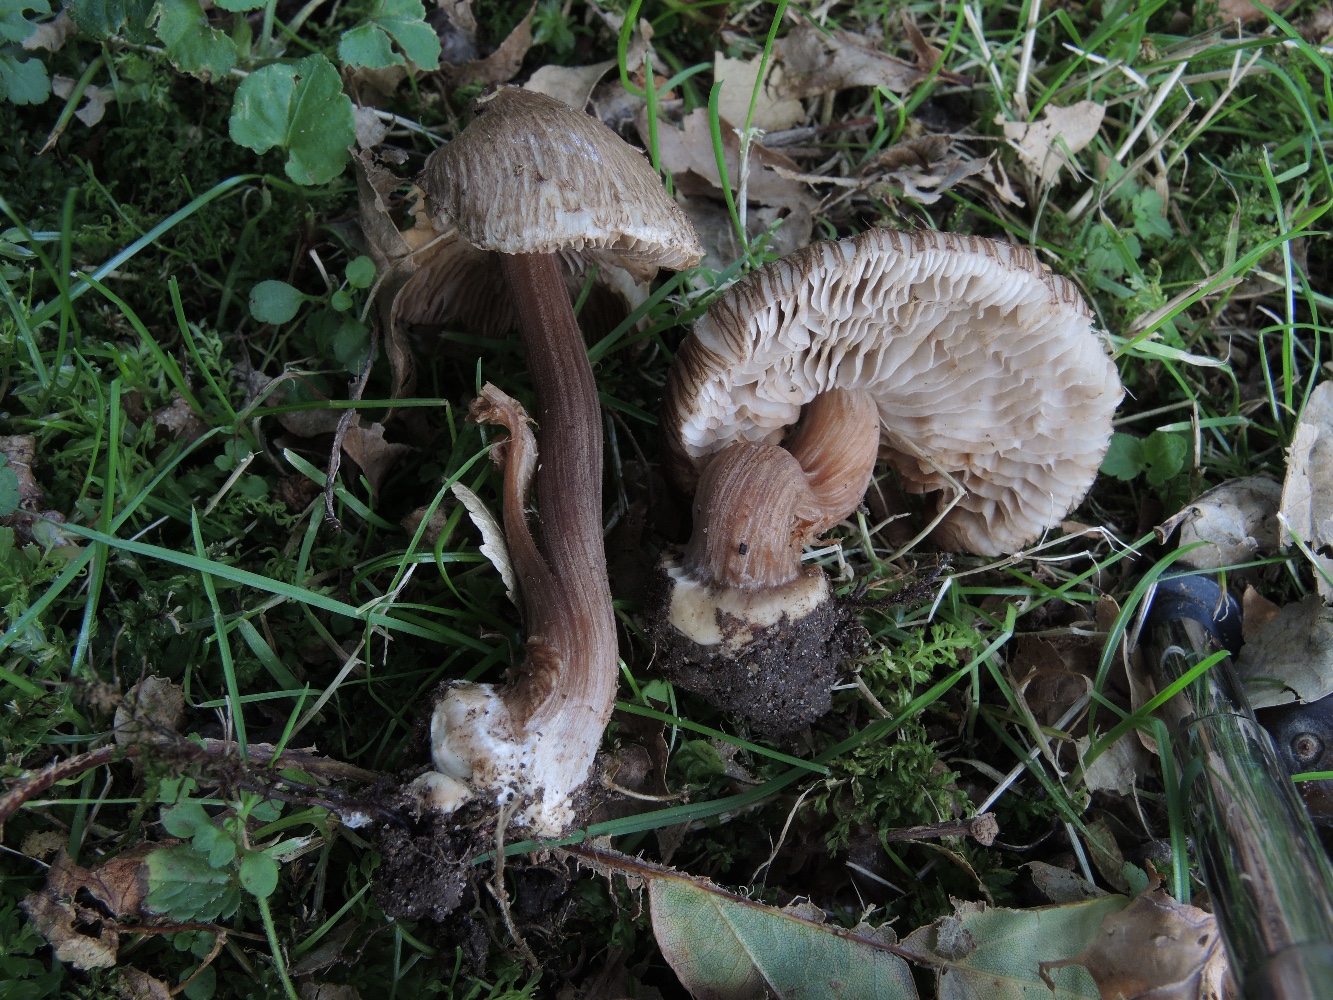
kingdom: Fungi
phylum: Basidiomycota
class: Agaricomycetes
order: Agaricales
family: Inocybaceae
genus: Inocybe
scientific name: Inocybe asterospora
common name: stjernesporet trævlhat
